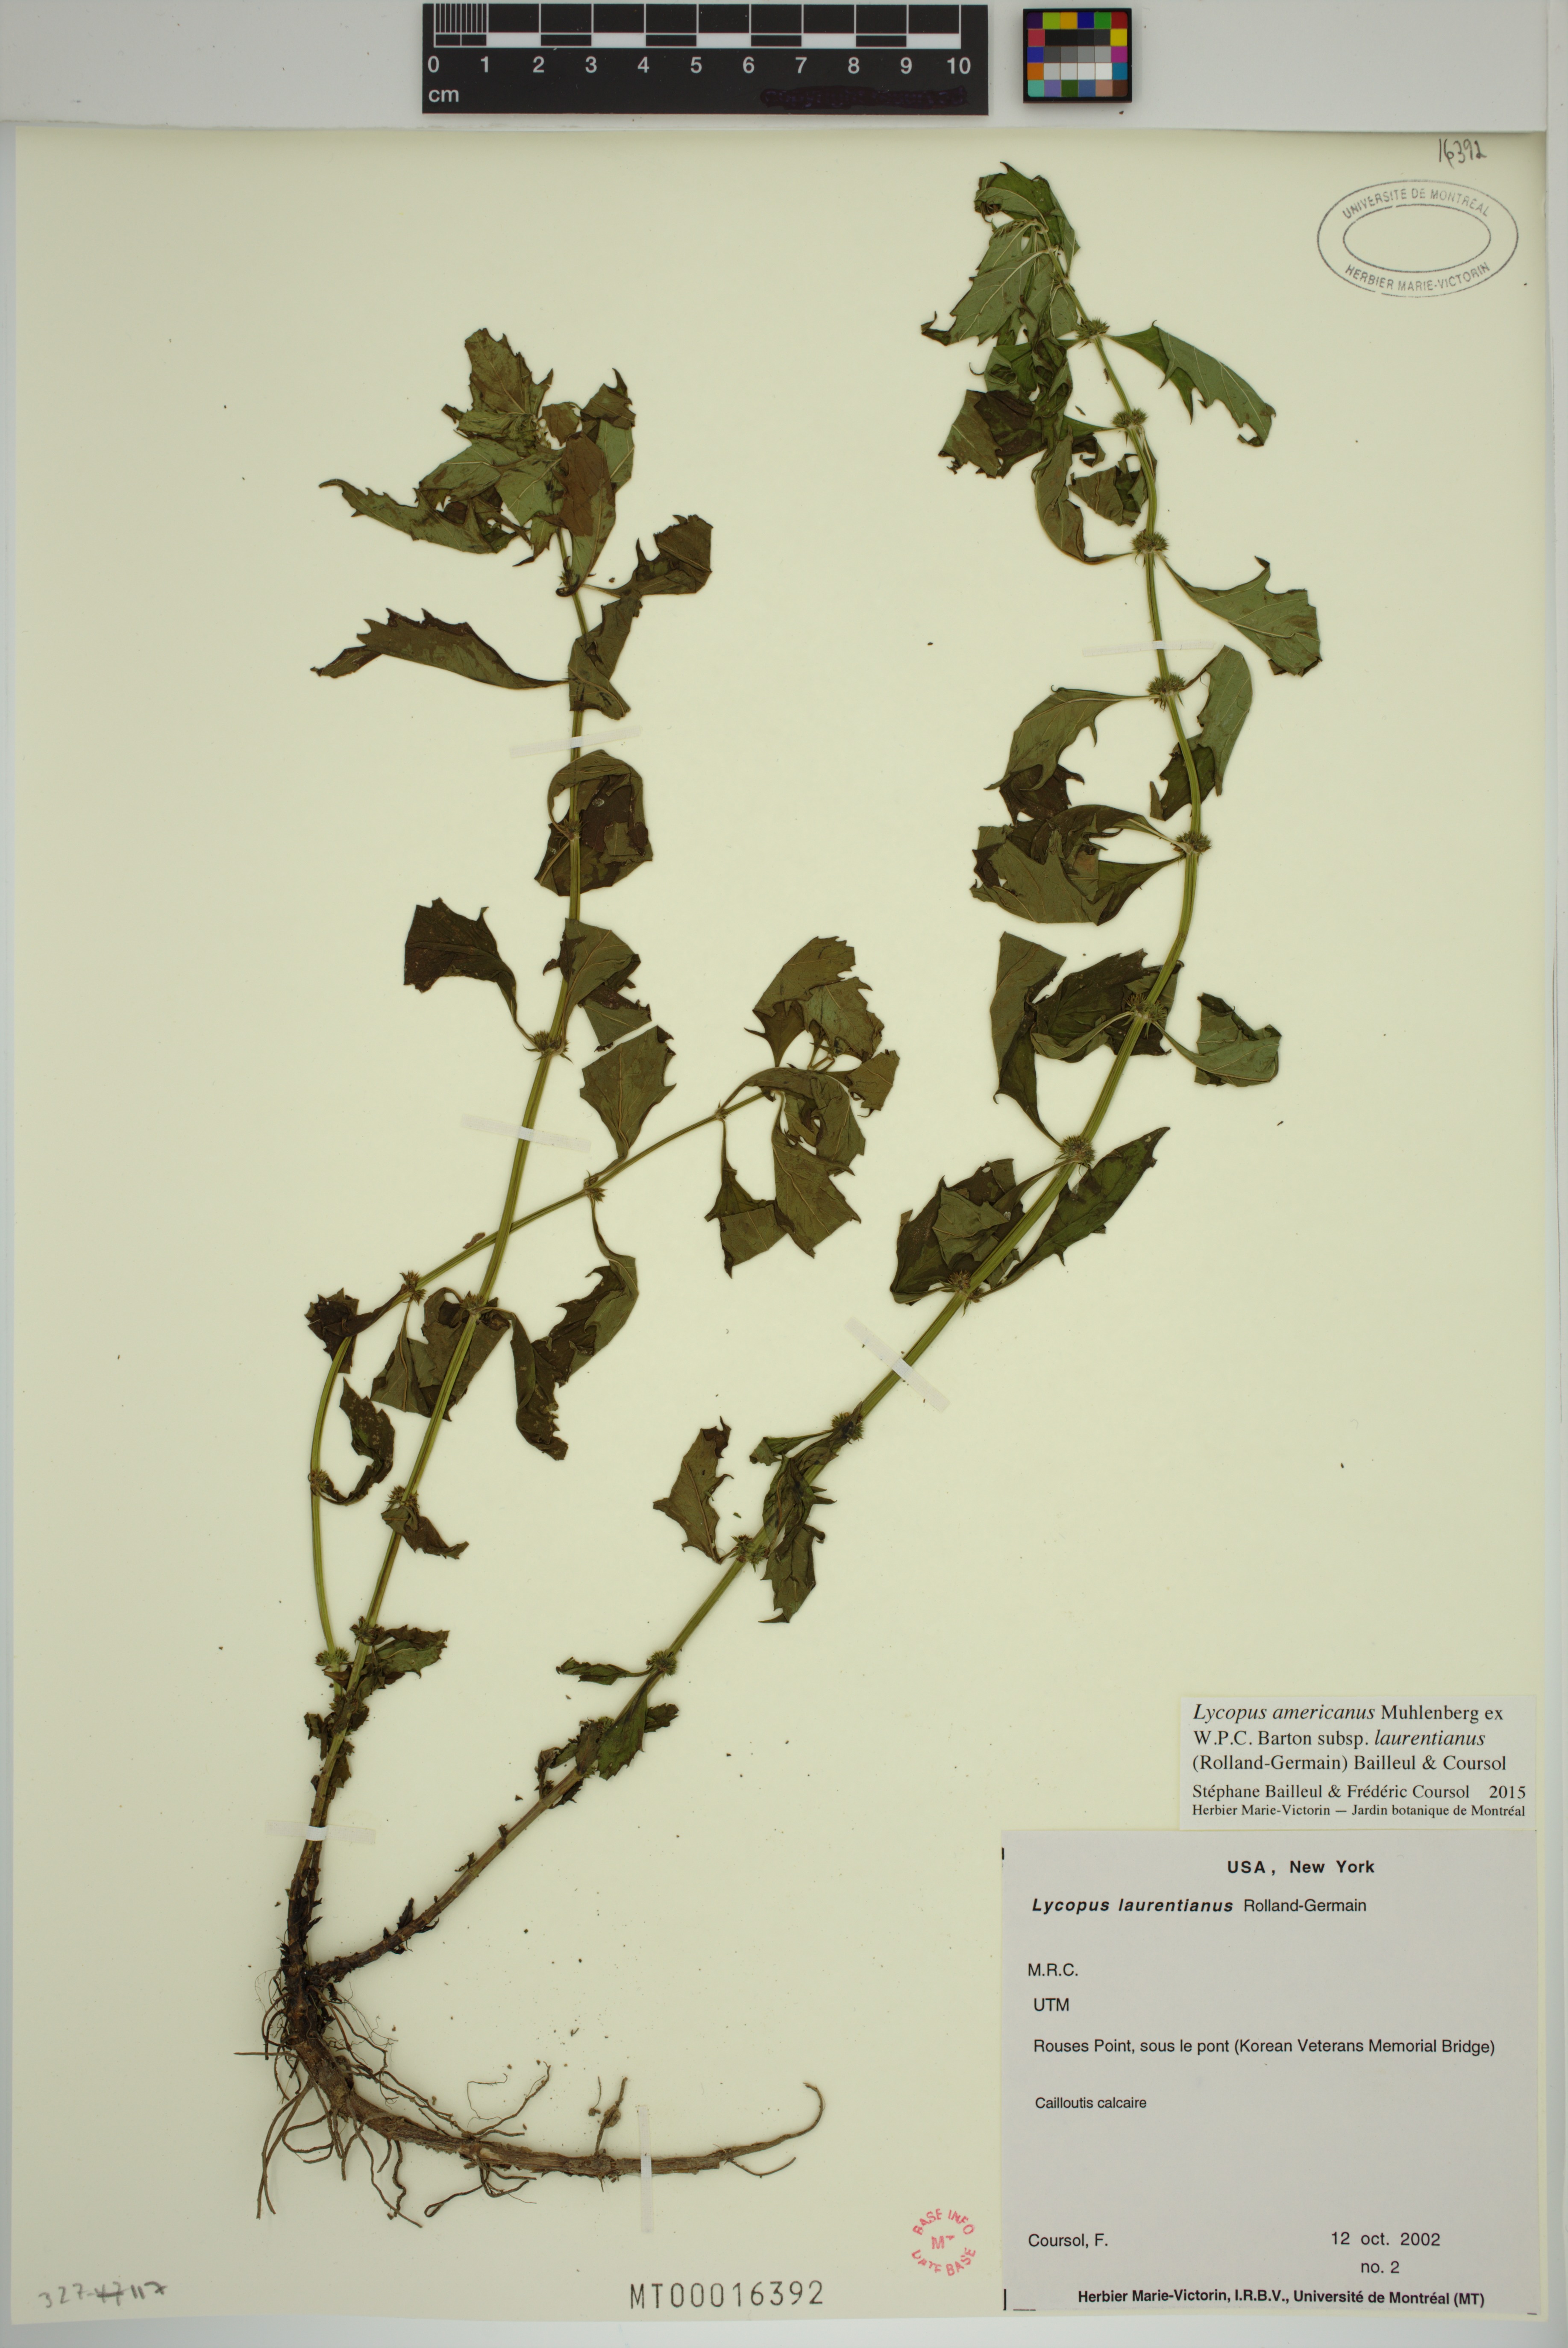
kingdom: Plantae
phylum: Tracheophyta
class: Magnoliopsida
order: Lamiales
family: Lamiaceae
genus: Lycopus
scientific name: Lycopus americanus
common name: American bugleweed
